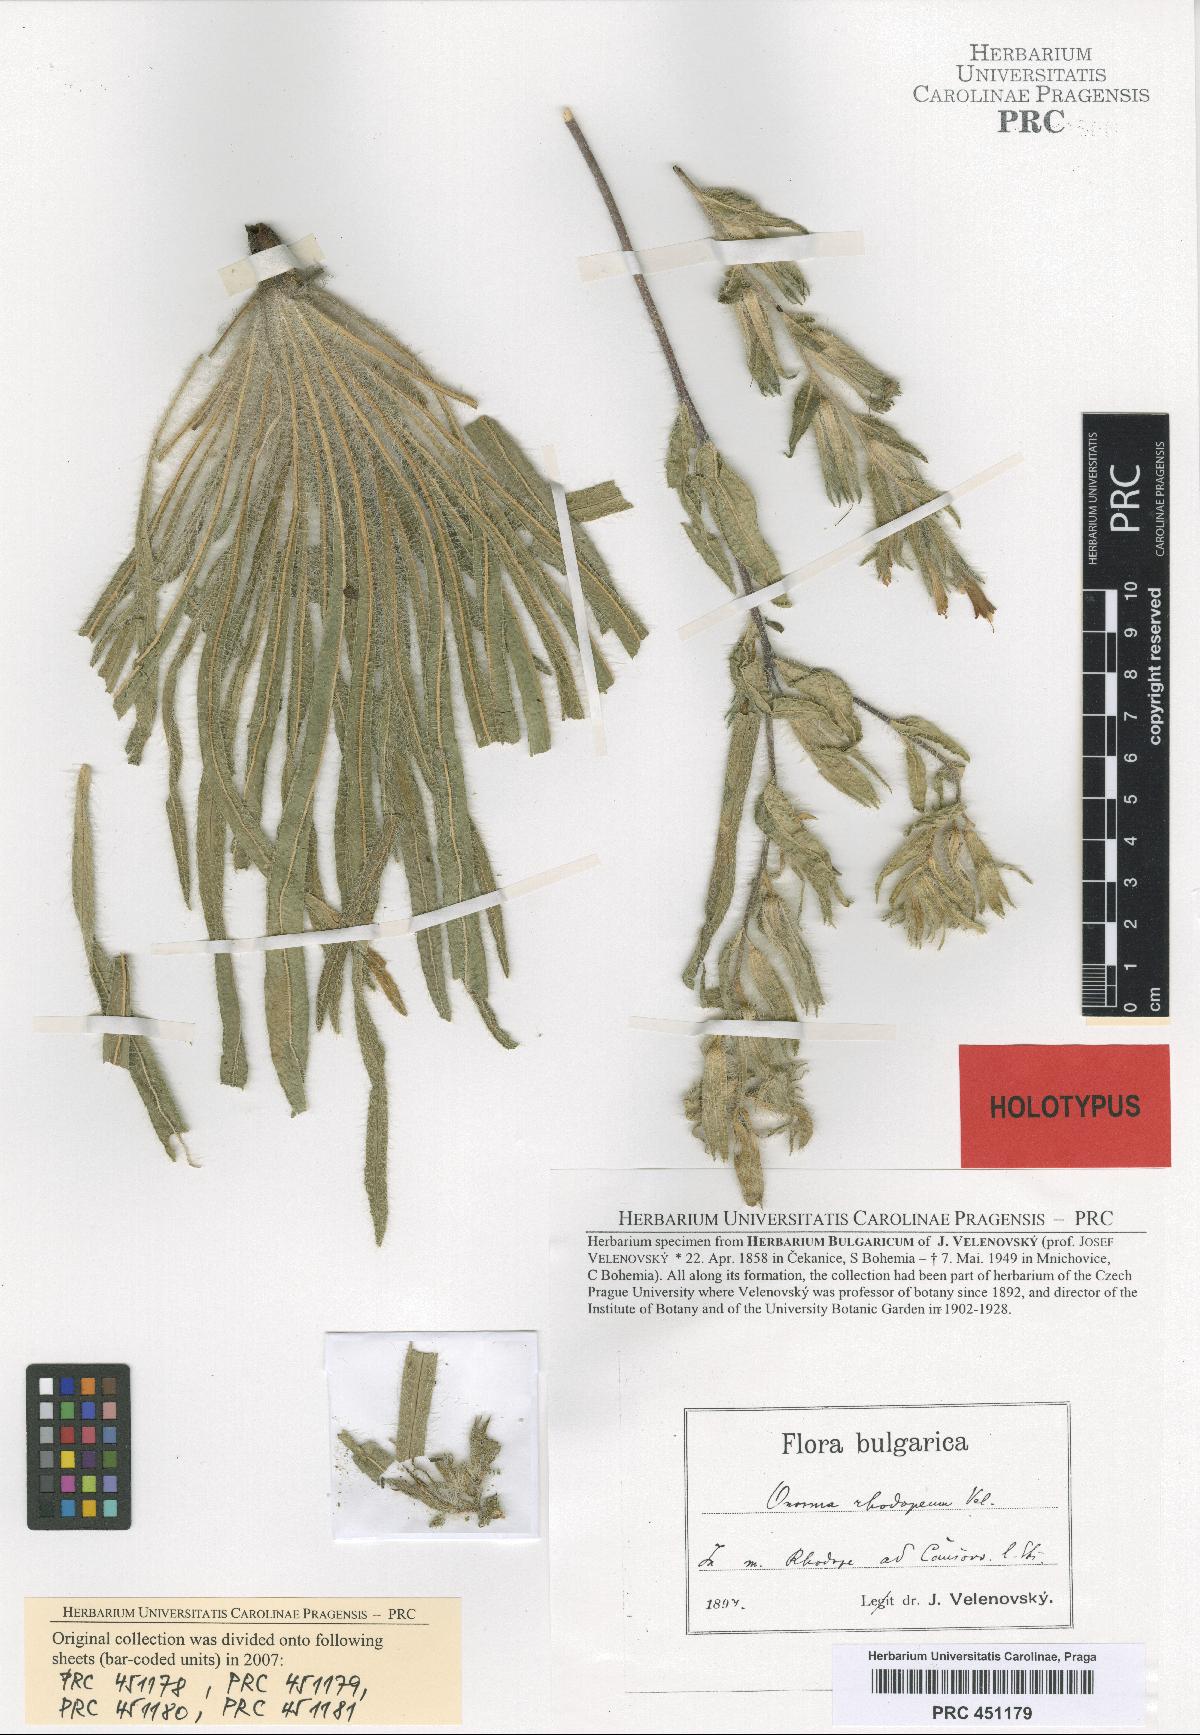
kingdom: Plantae
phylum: Tracheophyta
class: Magnoliopsida
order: Boraginales
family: Boraginaceae
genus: Onosma
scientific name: Onosma visianii
